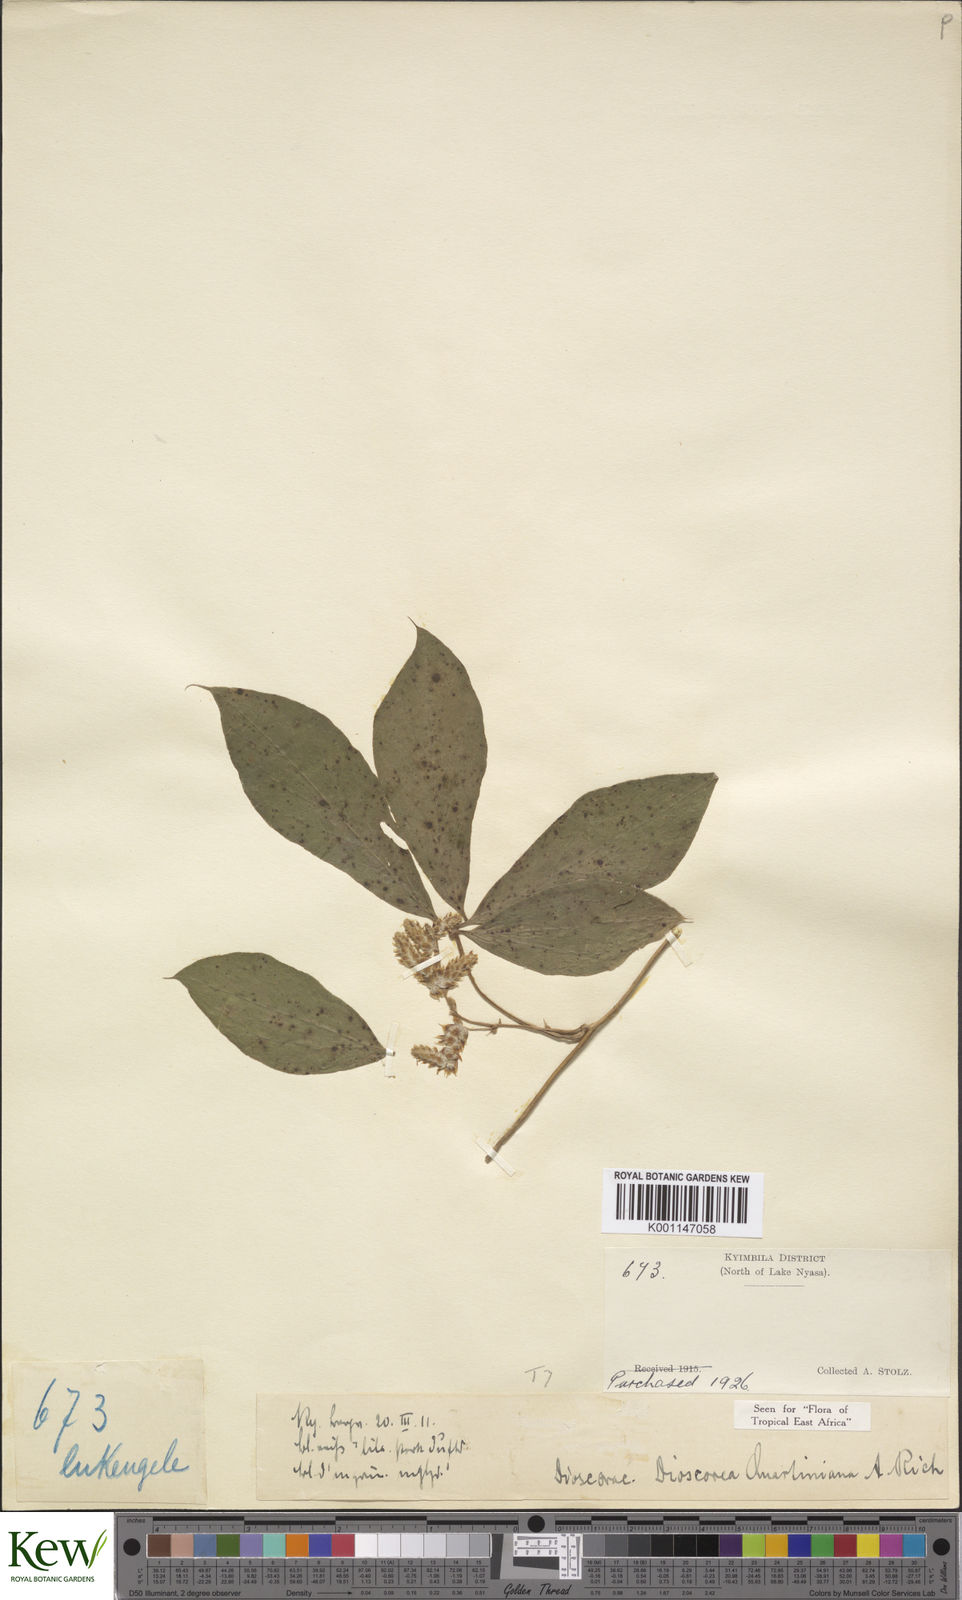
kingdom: Plantae
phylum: Tracheophyta
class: Liliopsida
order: Dioscoreales
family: Dioscoreaceae
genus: Dioscorea
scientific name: Dioscorea quartiniana
